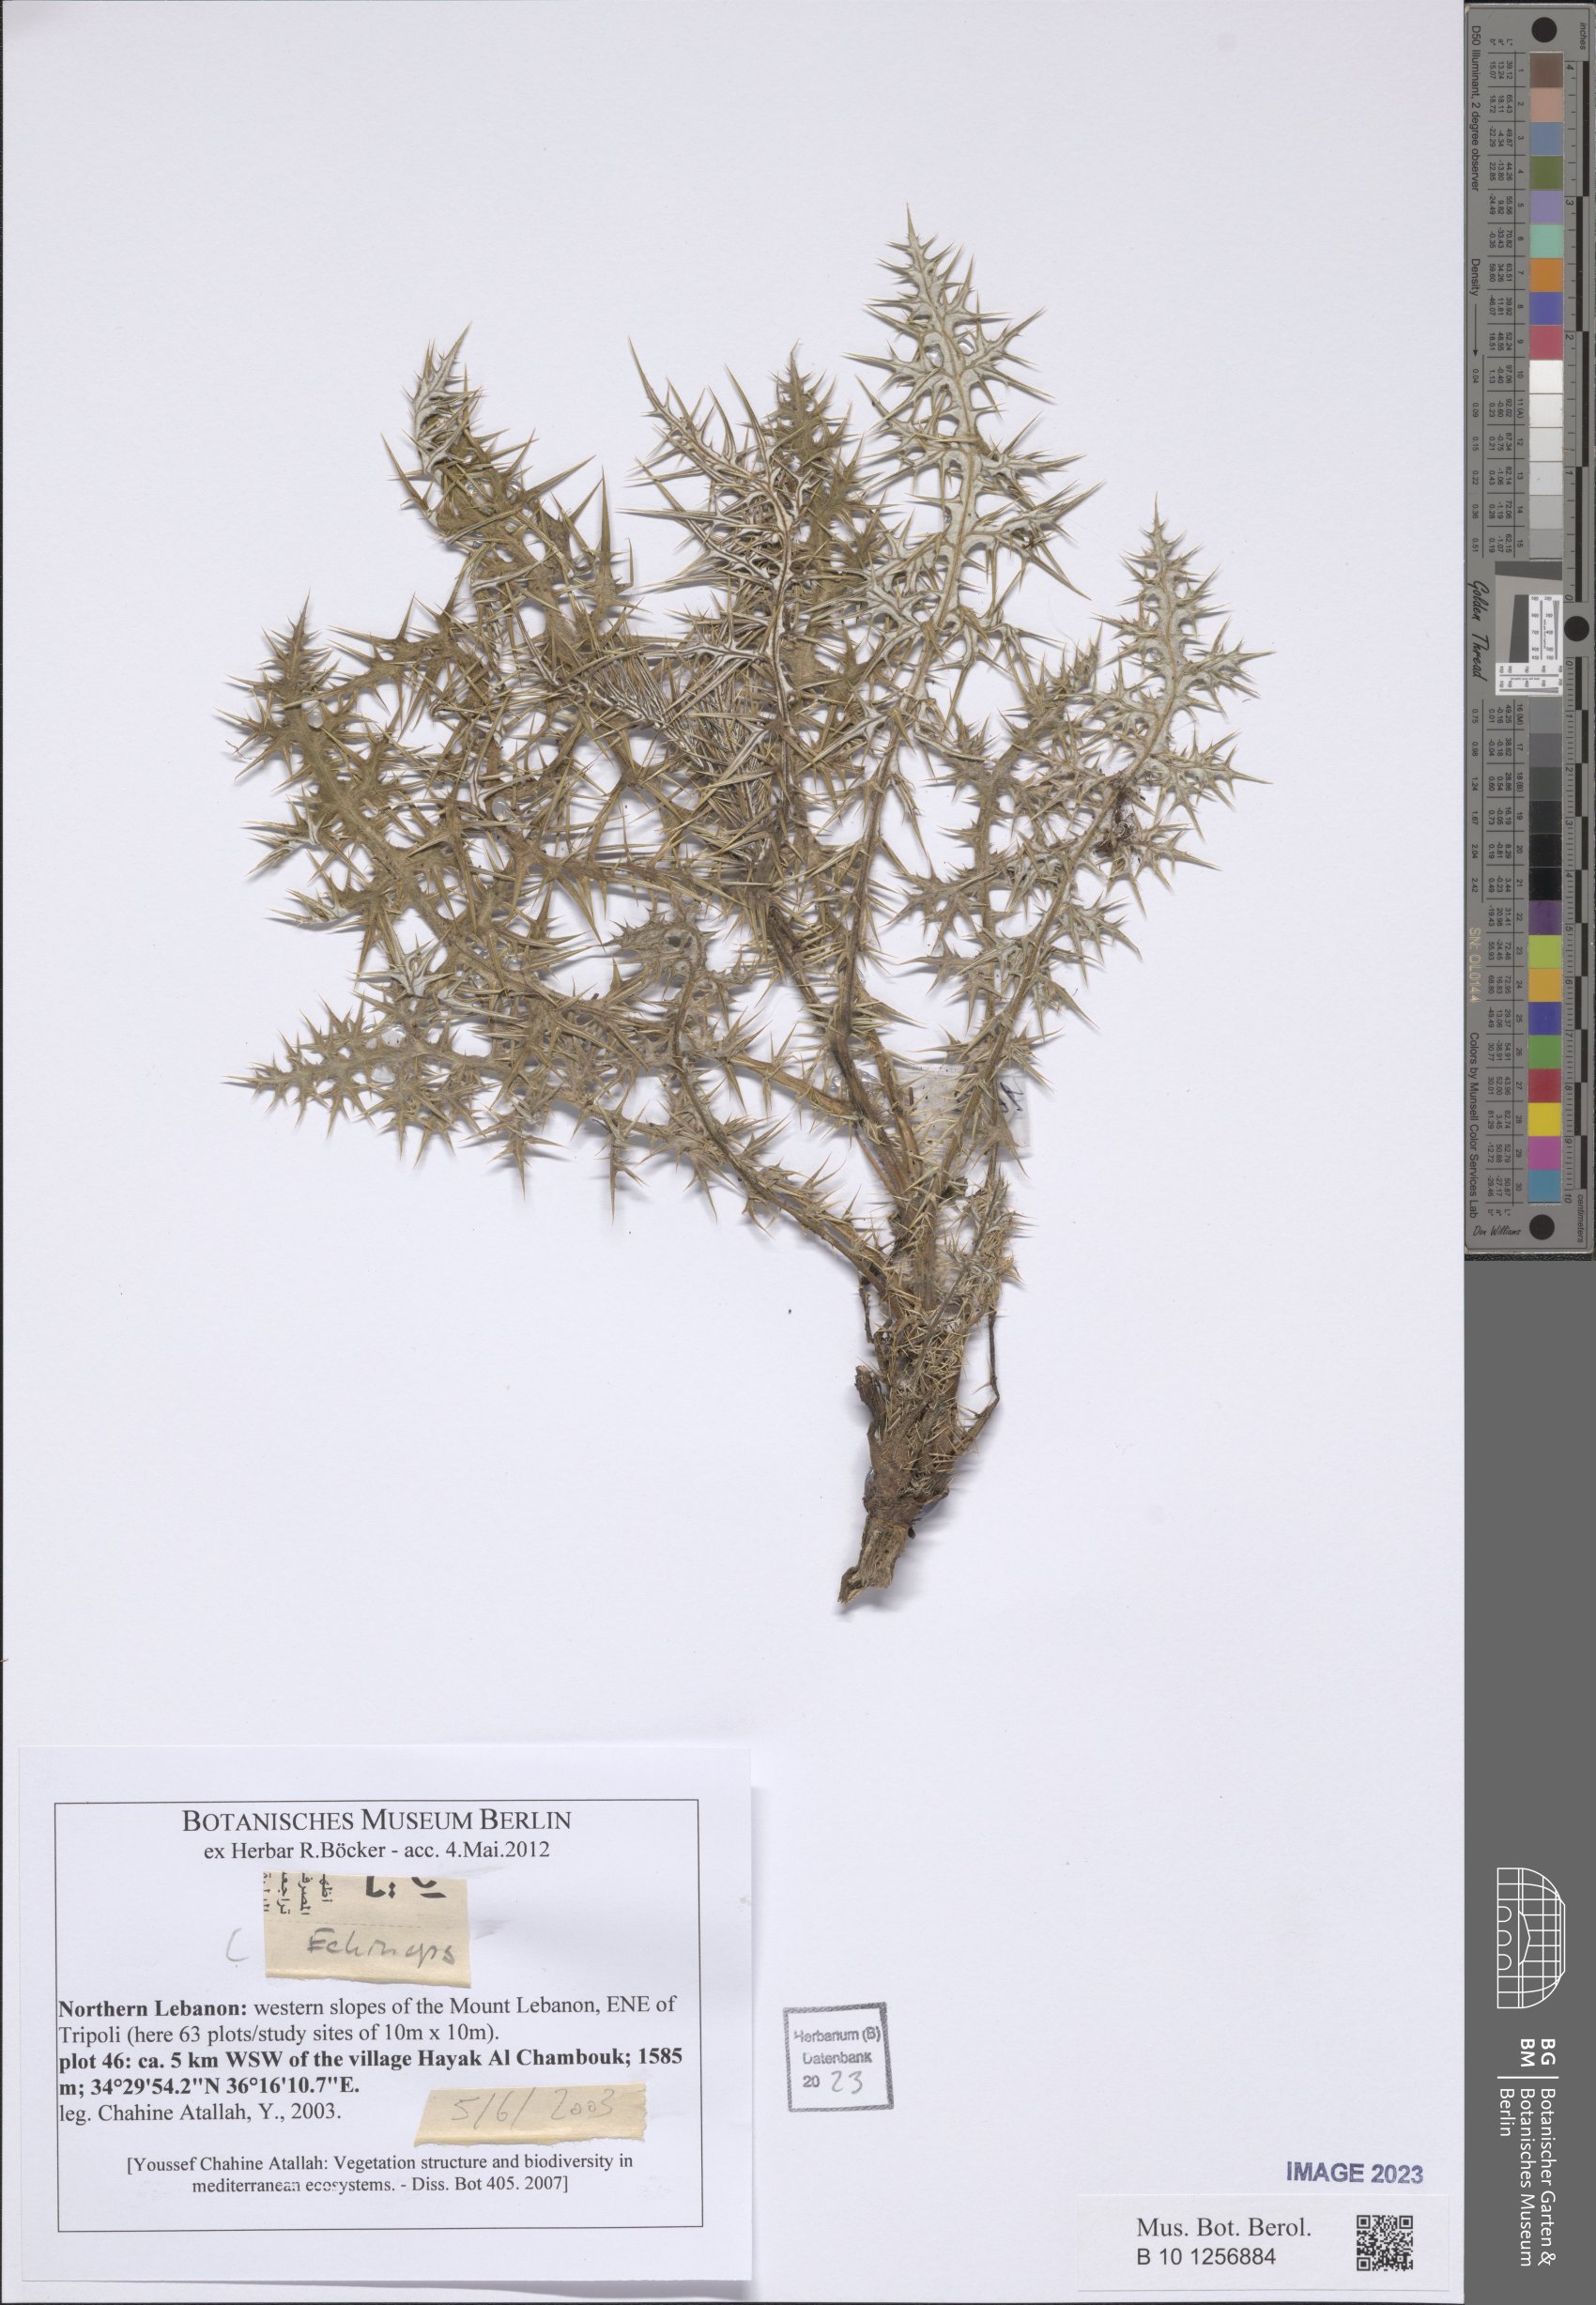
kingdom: Plantae
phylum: Tracheophyta
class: Magnoliopsida
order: Asterales
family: Asteraceae
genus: Echinops
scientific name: Echinops
